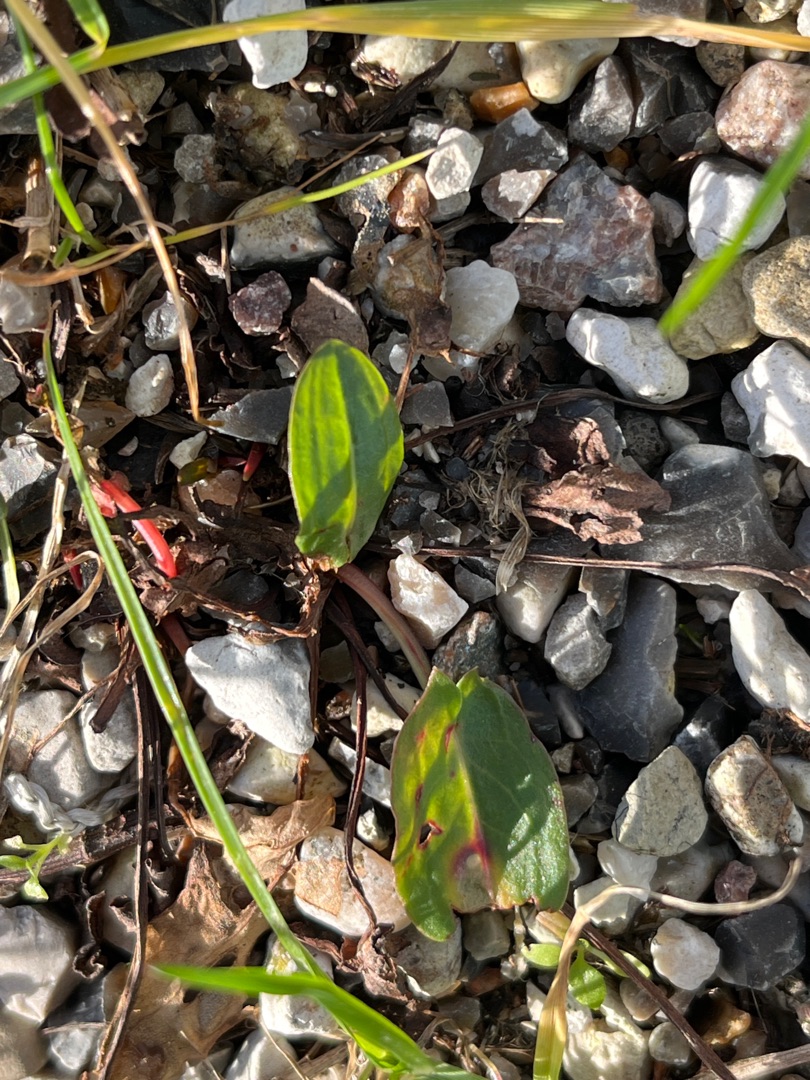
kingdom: Plantae
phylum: Tracheophyta
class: Magnoliopsida
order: Caryophyllales
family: Polygonaceae
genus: Rumex
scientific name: Rumex
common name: Skræppeslægten
